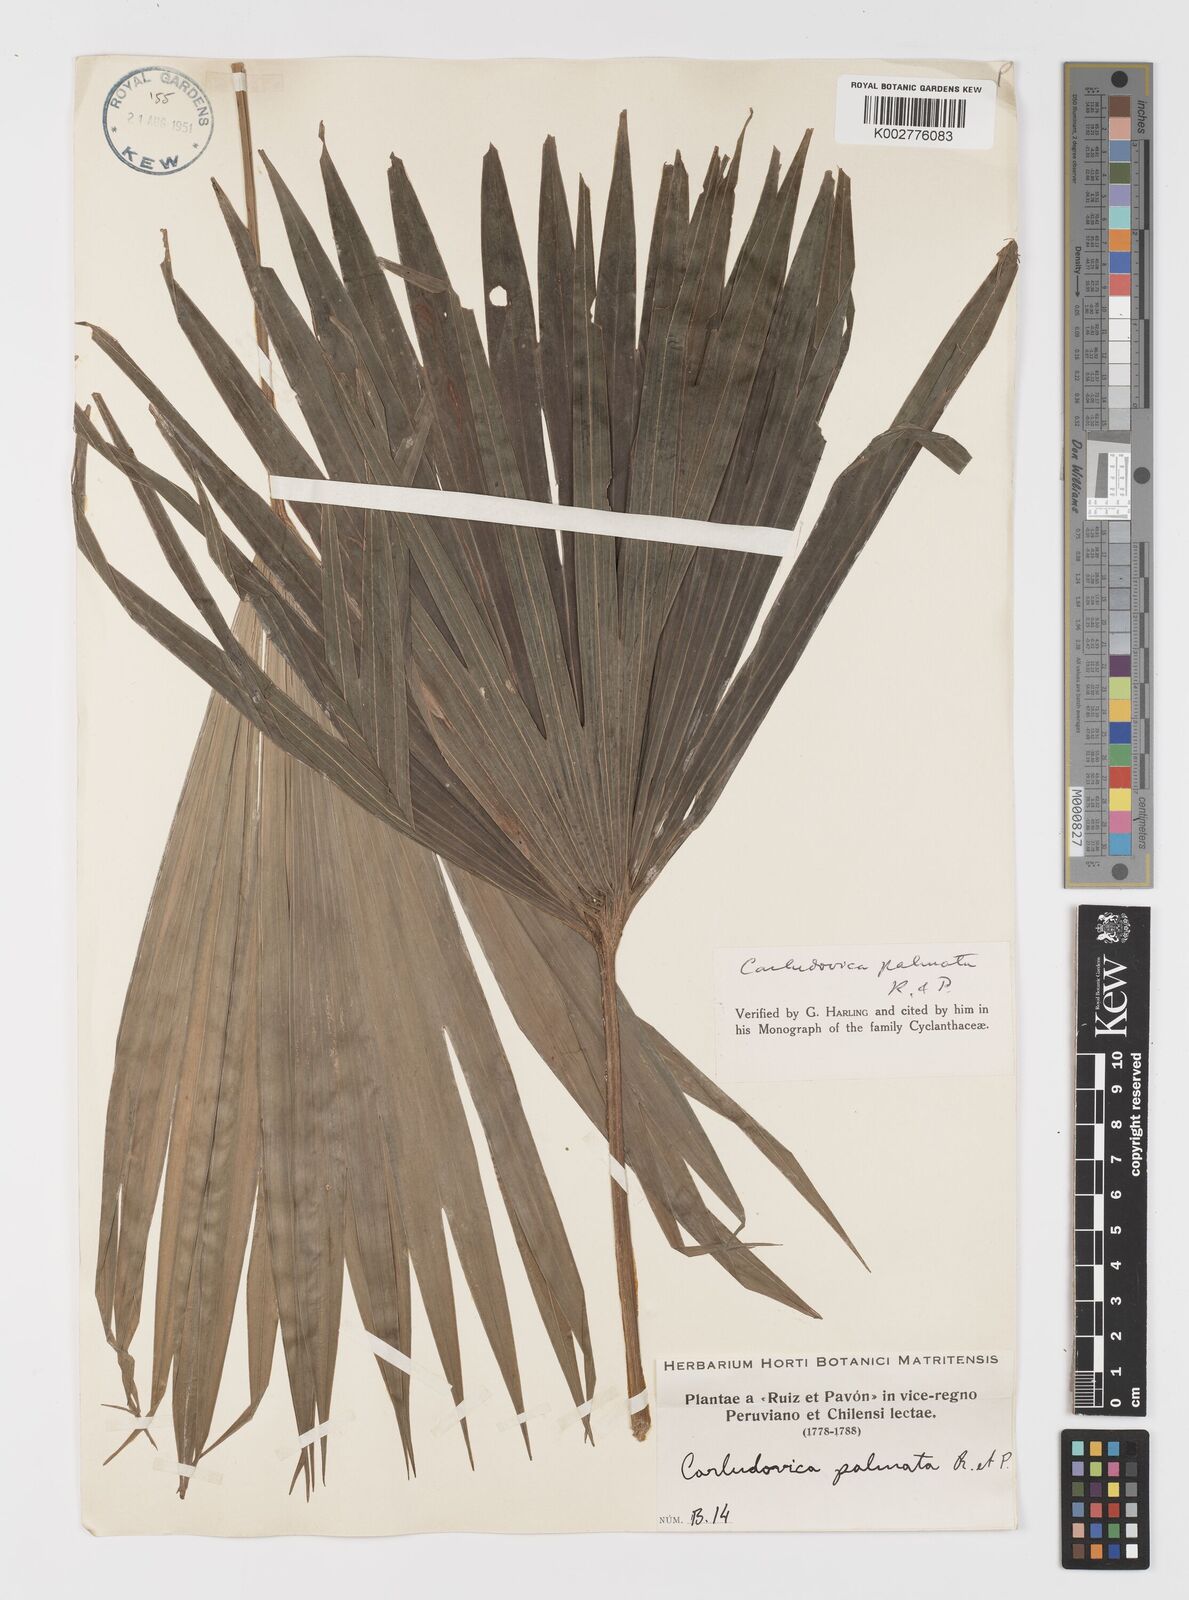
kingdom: Plantae
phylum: Tracheophyta
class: Liliopsida
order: Pandanales
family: Cyclanthaceae
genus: Carludovica
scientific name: Carludovica palmata
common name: Panama hat plant
